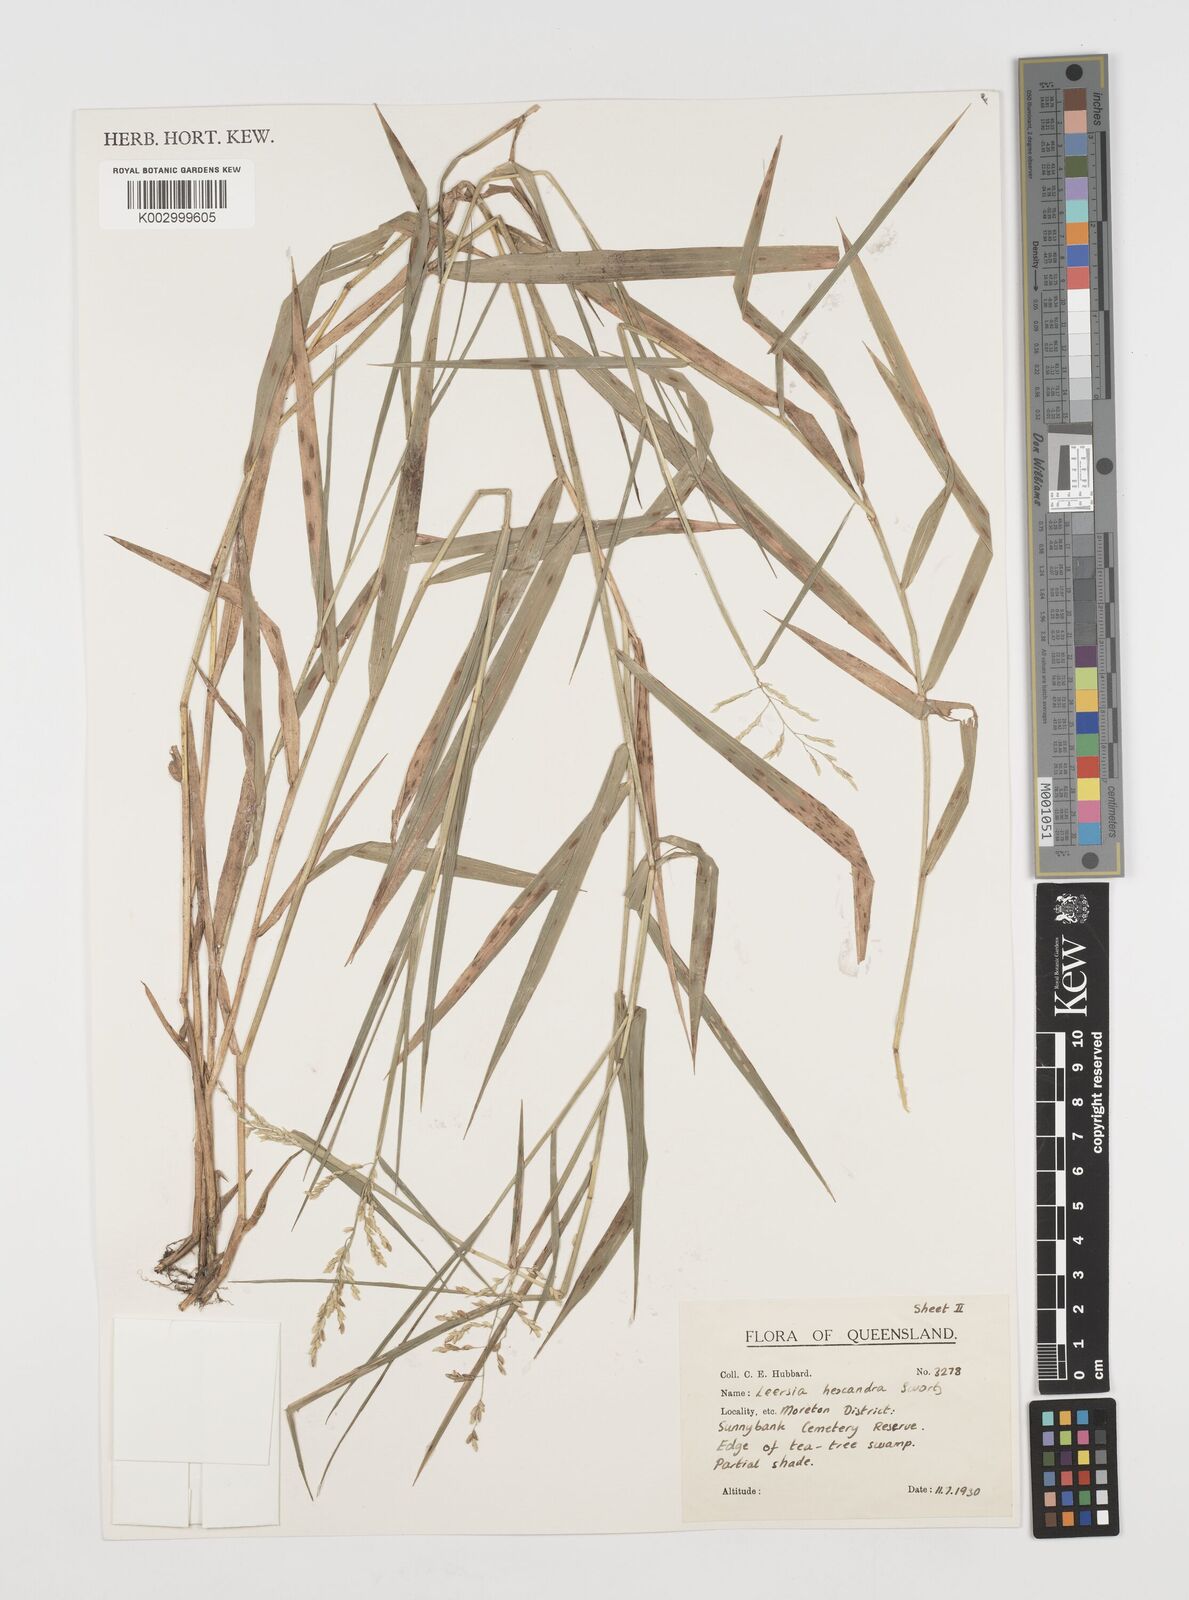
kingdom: Plantae
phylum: Tracheophyta
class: Liliopsida
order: Poales
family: Poaceae
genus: Leersia
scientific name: Leersia hexandra
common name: Southern cut grass
